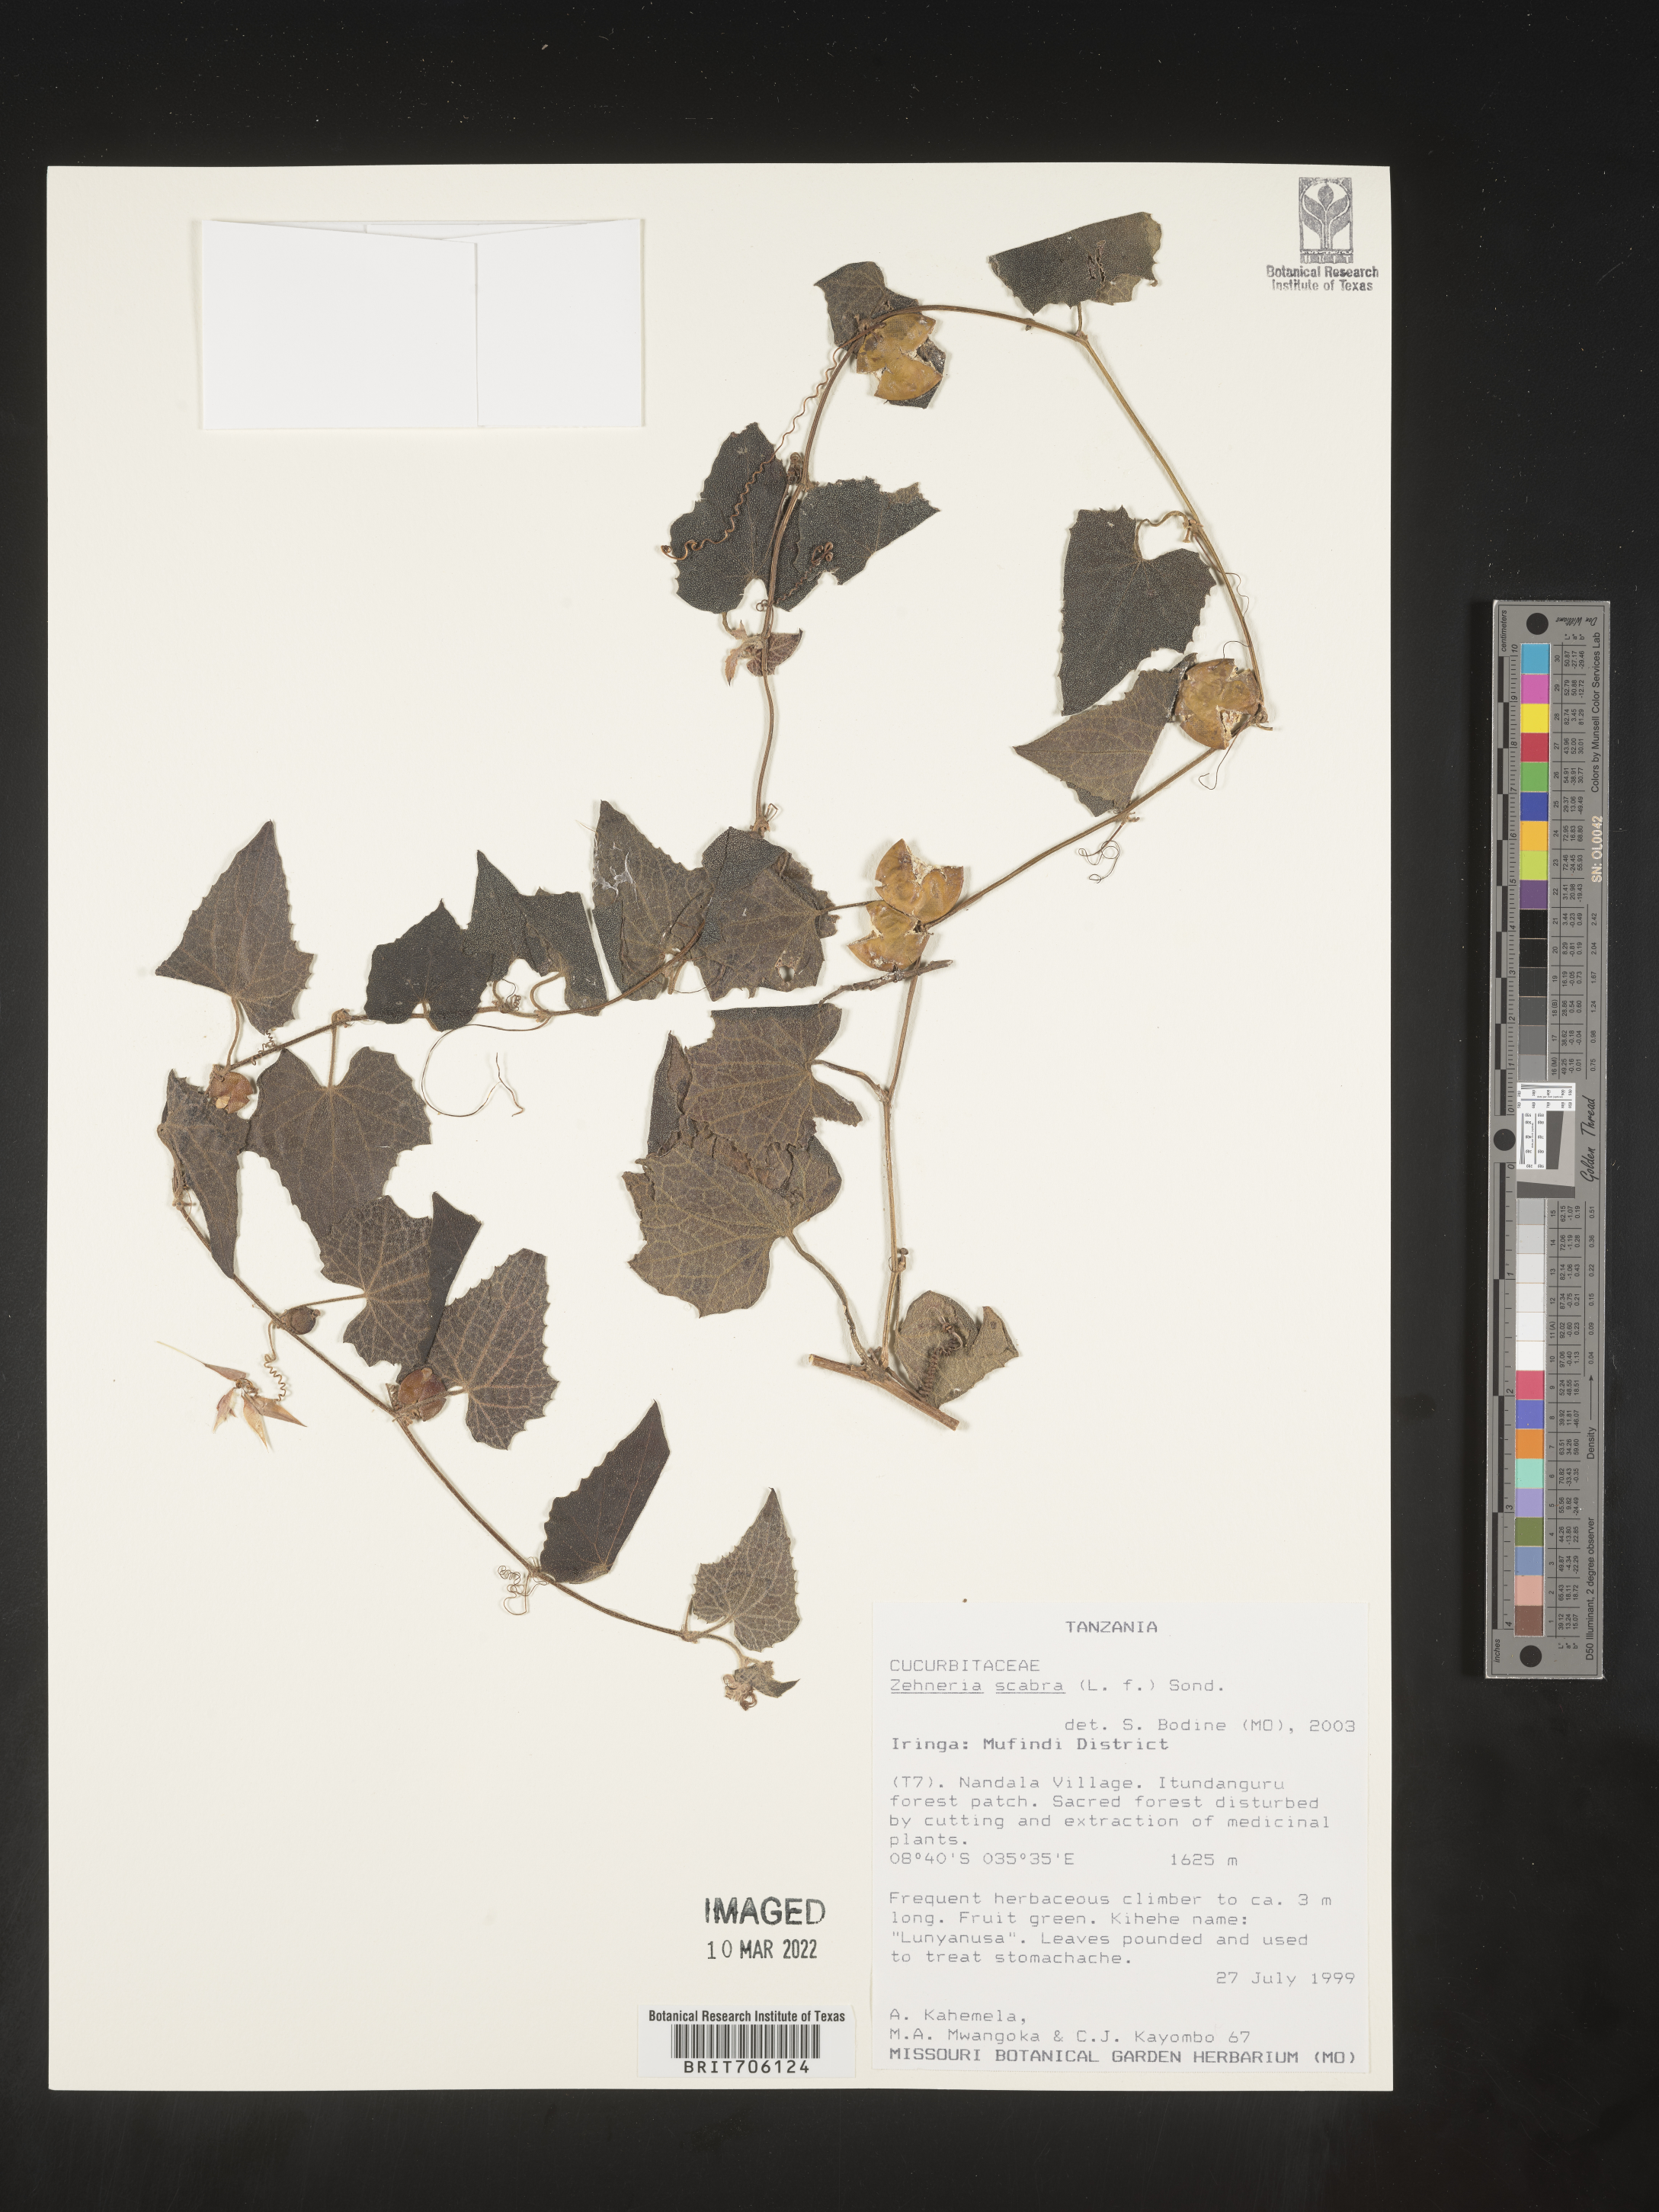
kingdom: Plantae
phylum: Tracheophyta
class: Magnoliopsida
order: Cucurbitales
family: Cucurbitaceae
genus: Zehneria
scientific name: Zehneria
